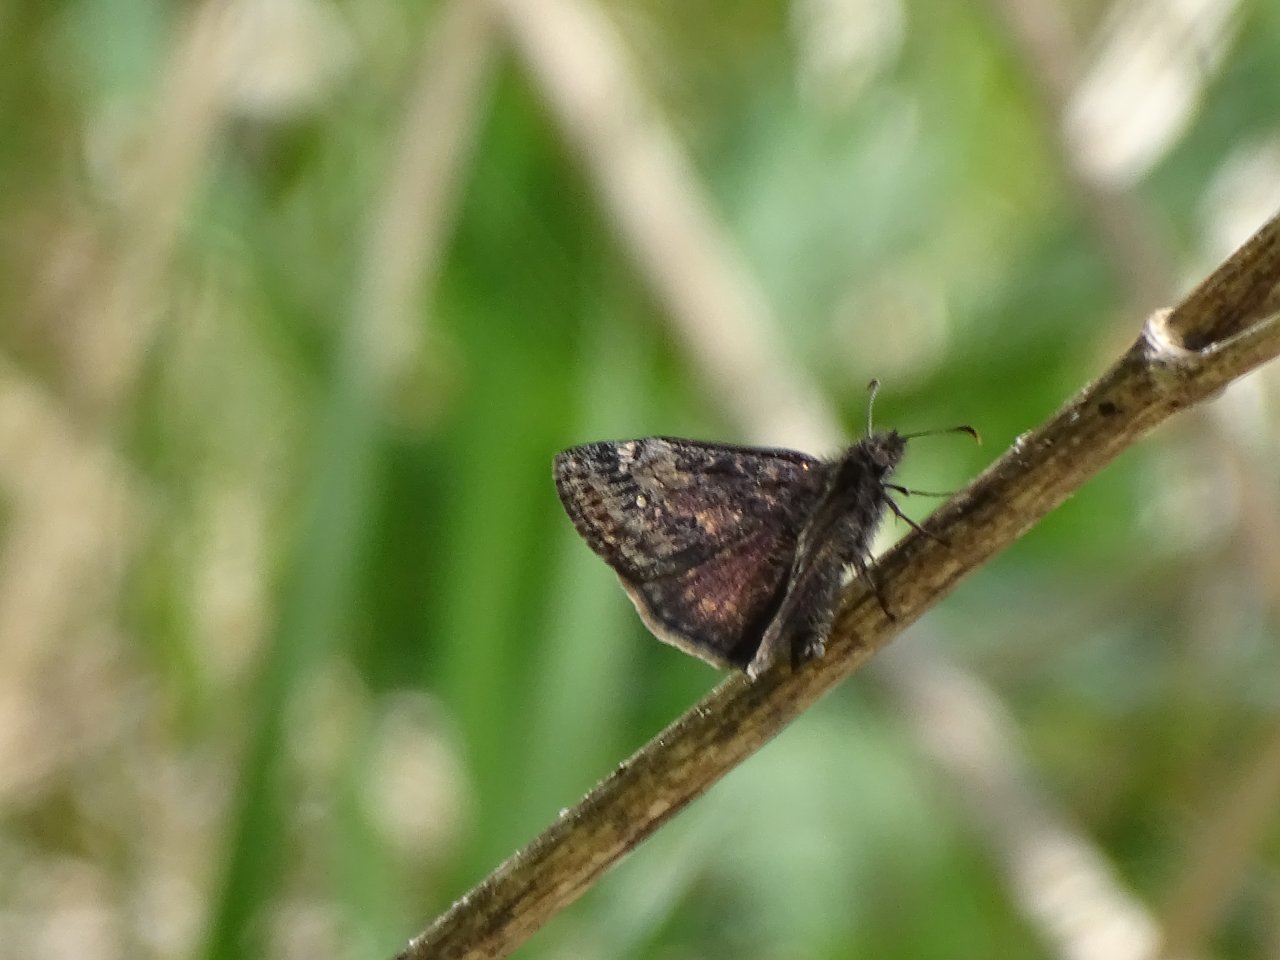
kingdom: Animalia
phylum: Arthropoda
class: Insecta
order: Lepidoptera
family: Hesperiidae
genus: Gesta
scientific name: Gesta
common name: Wild Indigo Duskywing
